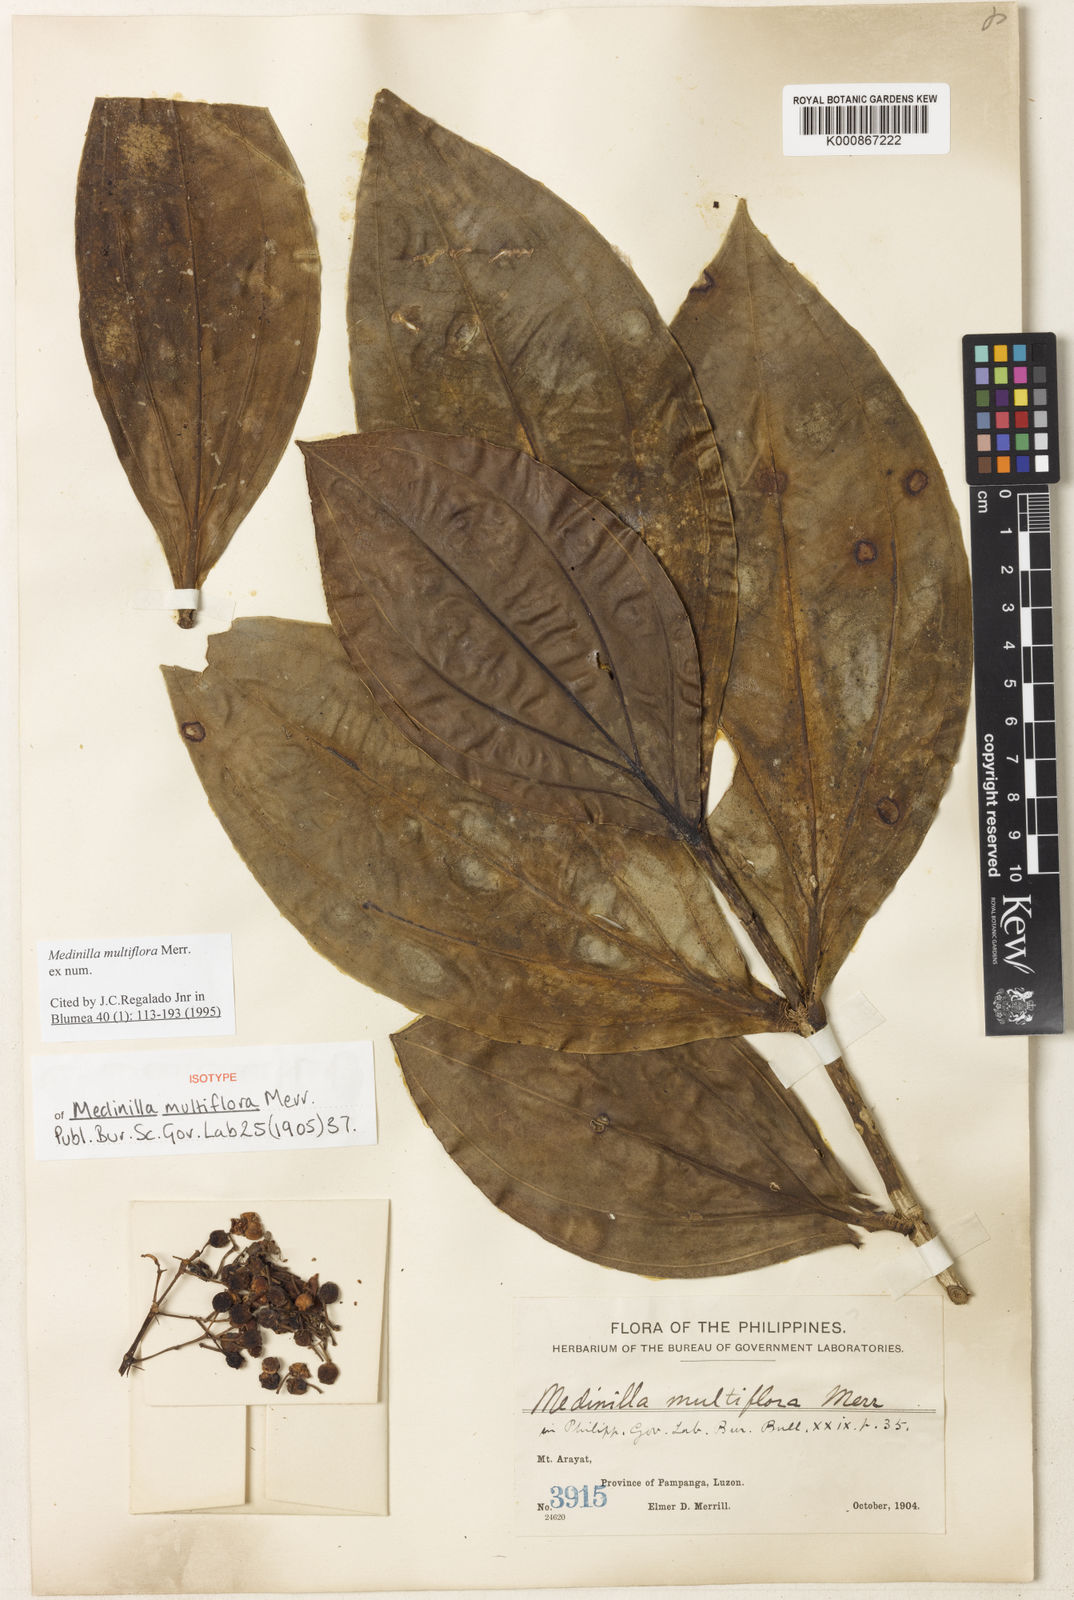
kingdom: Plantae
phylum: Tracheophyta
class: Magnoliopsida
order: Myrtales
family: Melastomataceae
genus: Medinilla
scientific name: Medinilla multiflora
